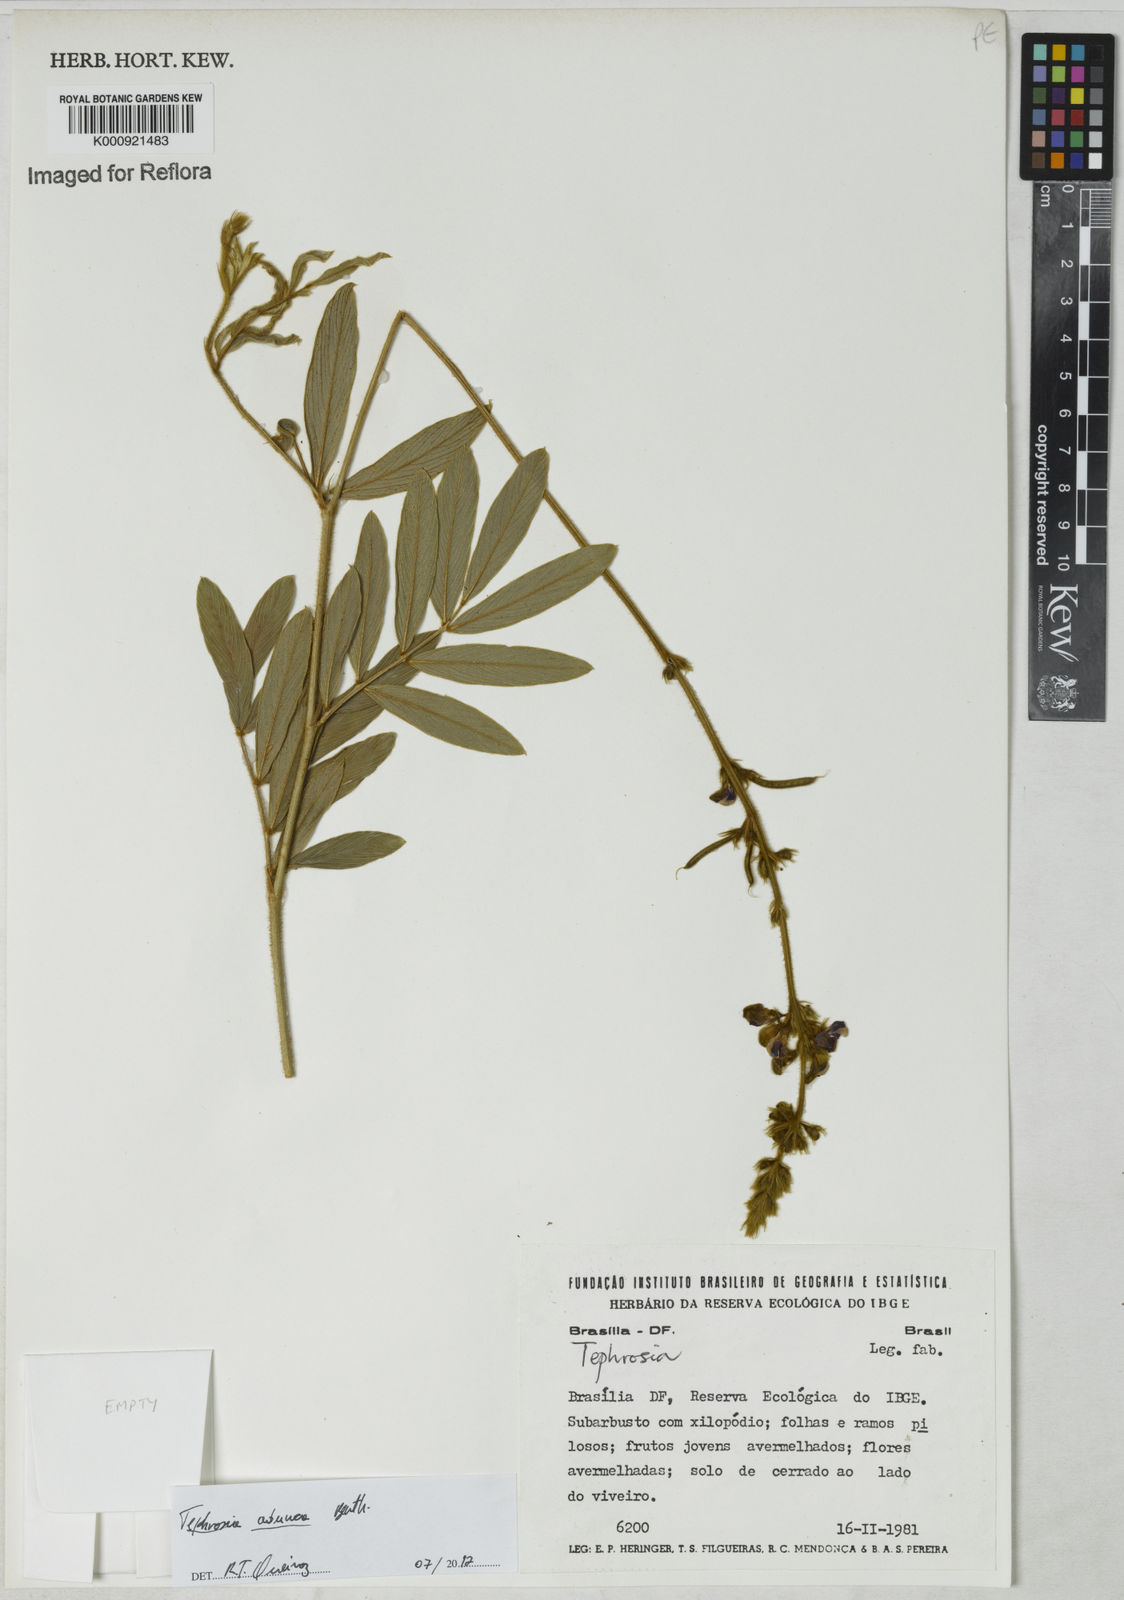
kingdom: Plantae
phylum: Tracheophyta
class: Magnoliopsida
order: Fabales
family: Fabaceae
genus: Tephrosia
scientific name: Tephrosia adunca
